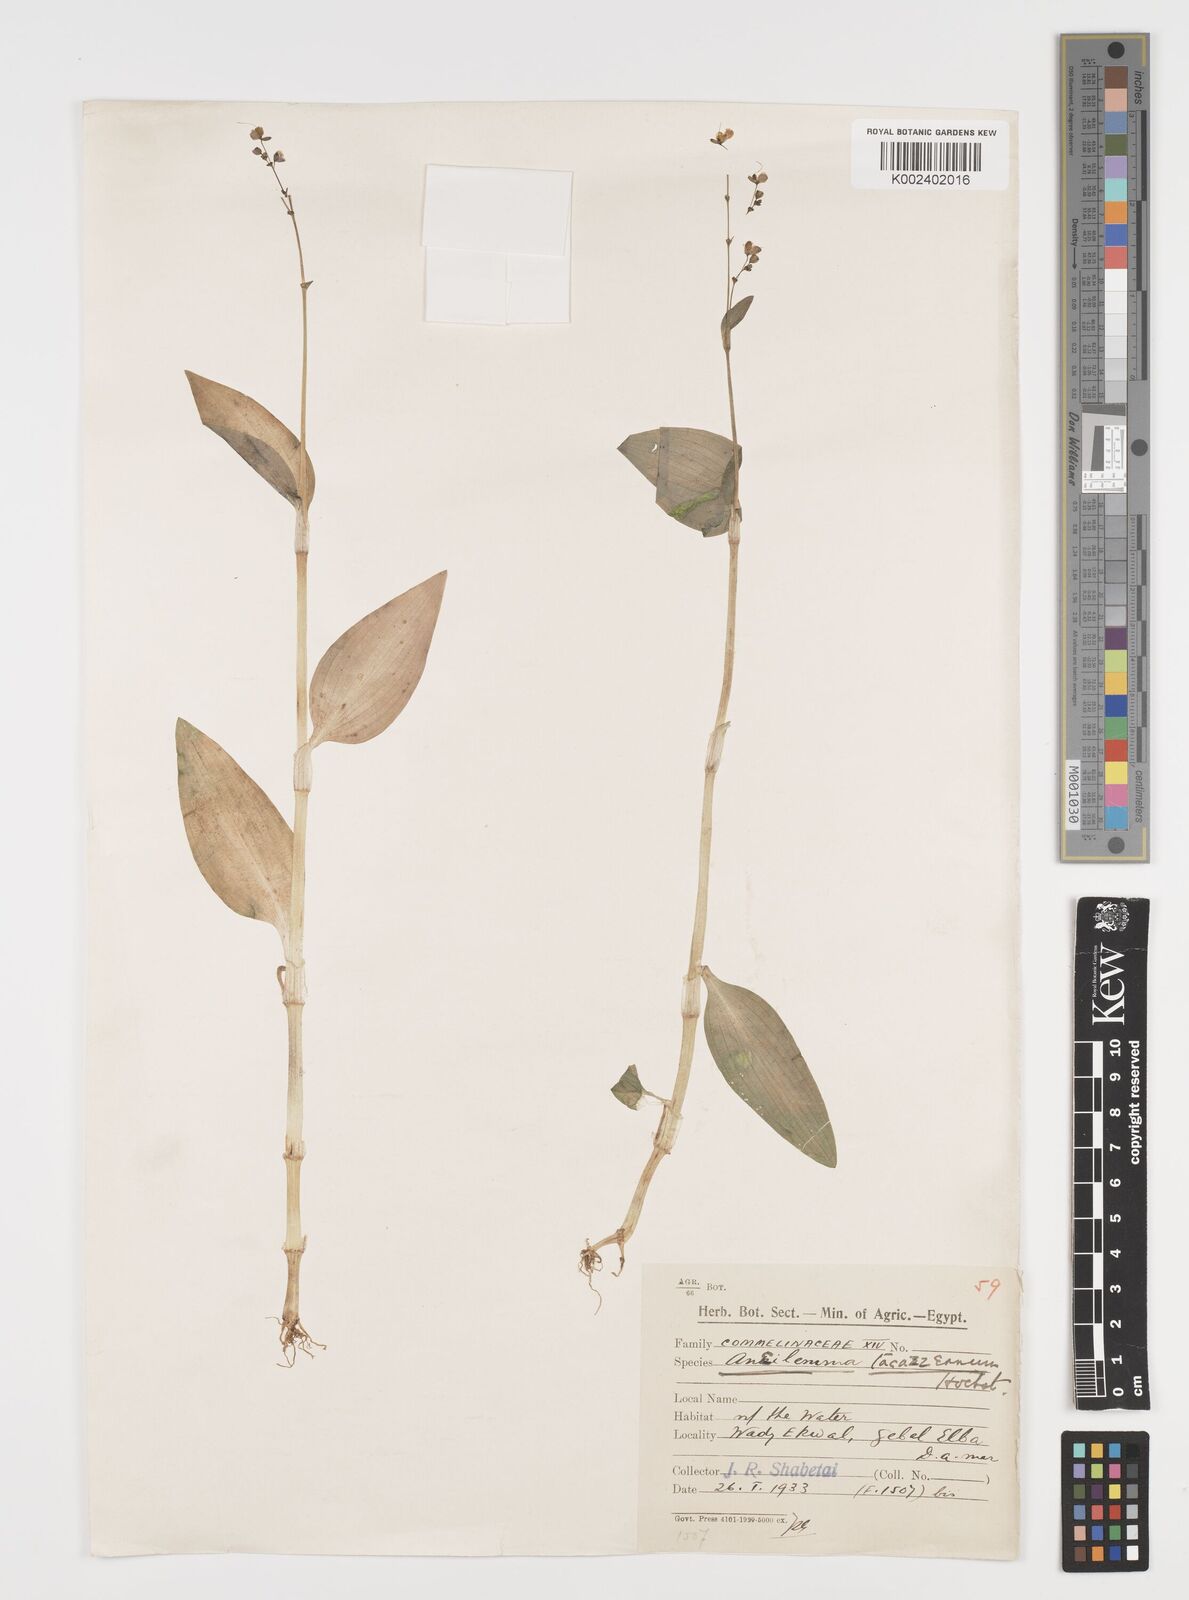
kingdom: Plantae
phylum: Tracheophyta
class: Liliopsida
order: Commelinales
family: Commelinaceae
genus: Aneilema
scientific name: Aneilema forskalii
